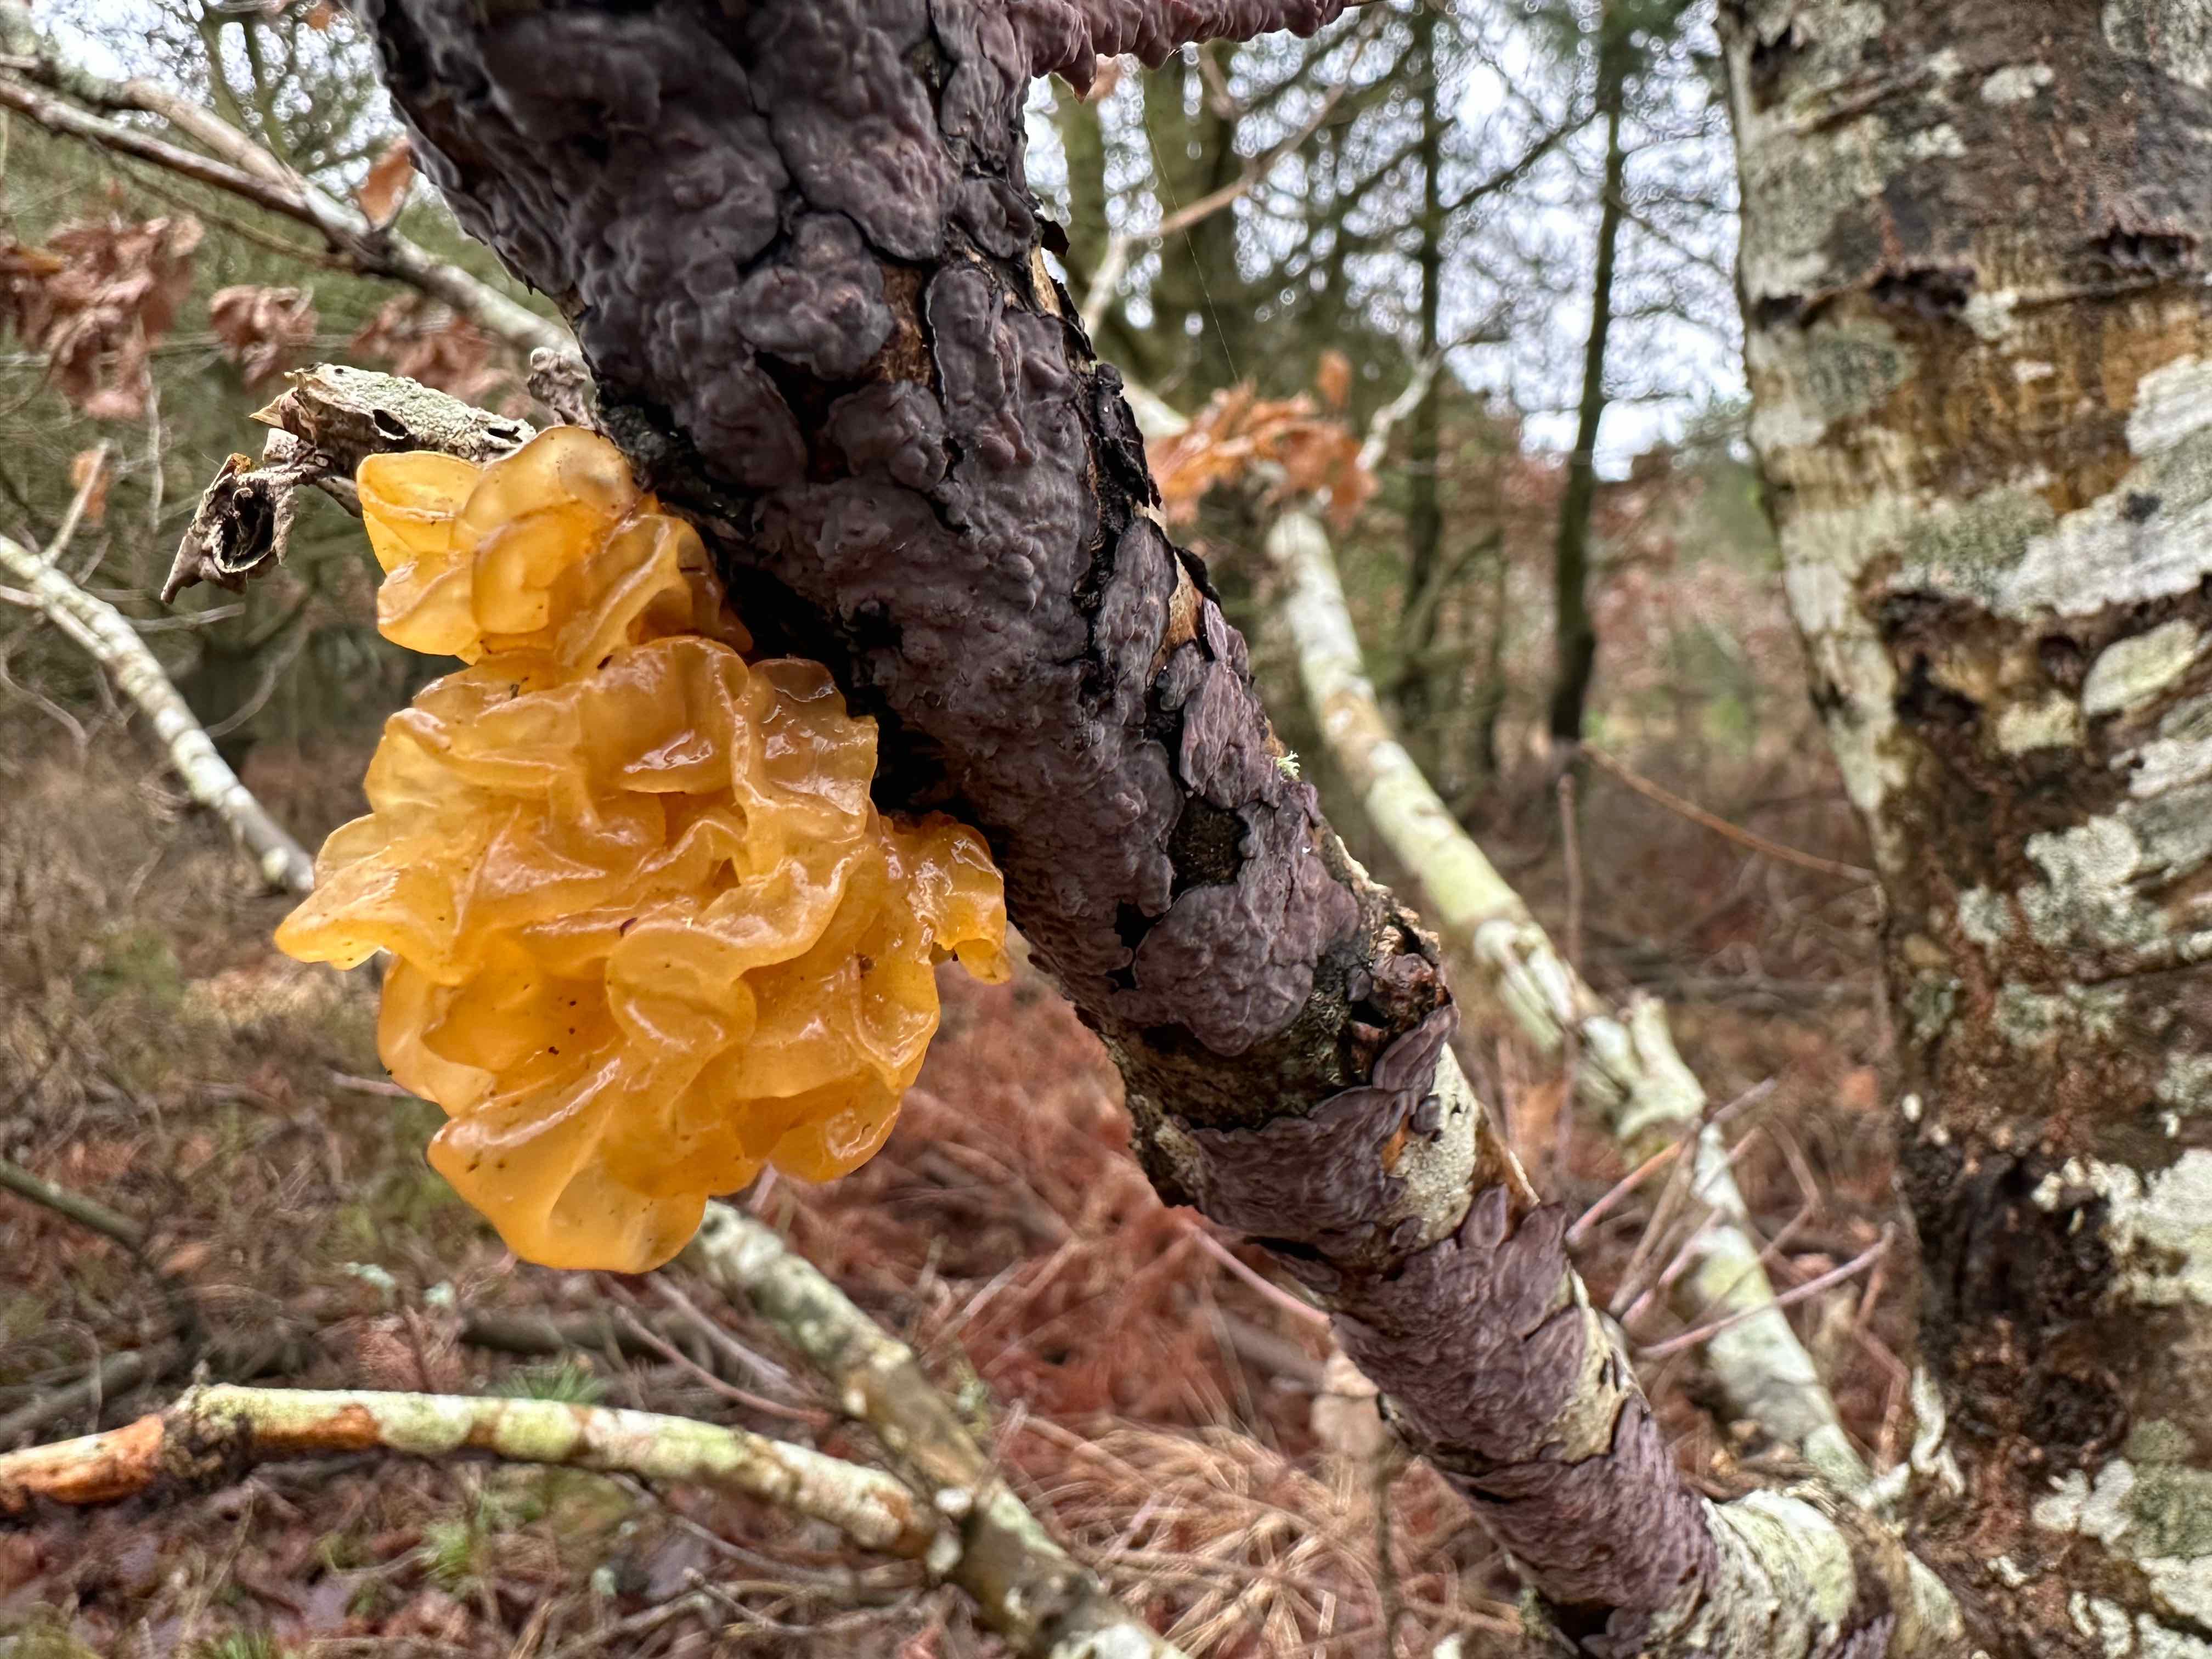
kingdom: Fungi
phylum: Basidiomycota
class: Tremellomycetes
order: Tremellales
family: Tremellaceae
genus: Tremella
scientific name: Tremella mesenterica
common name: gul bævresvamp
